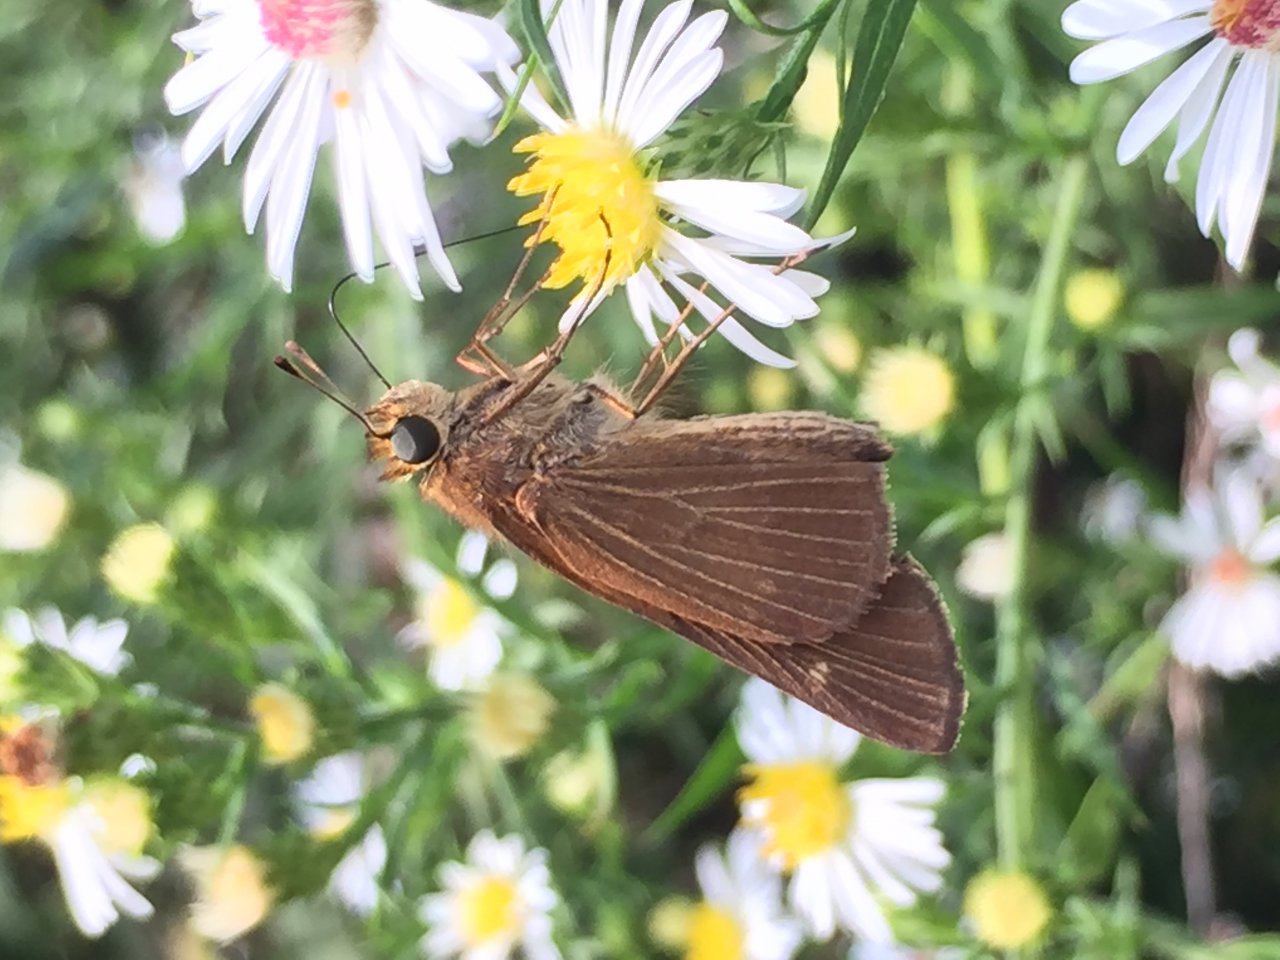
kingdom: Animalia
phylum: Arthropoda
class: Insecta
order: Lepidoptera
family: Hesperiidae
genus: Panoquina
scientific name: Panoquina ocola
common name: Ocola Skipper
